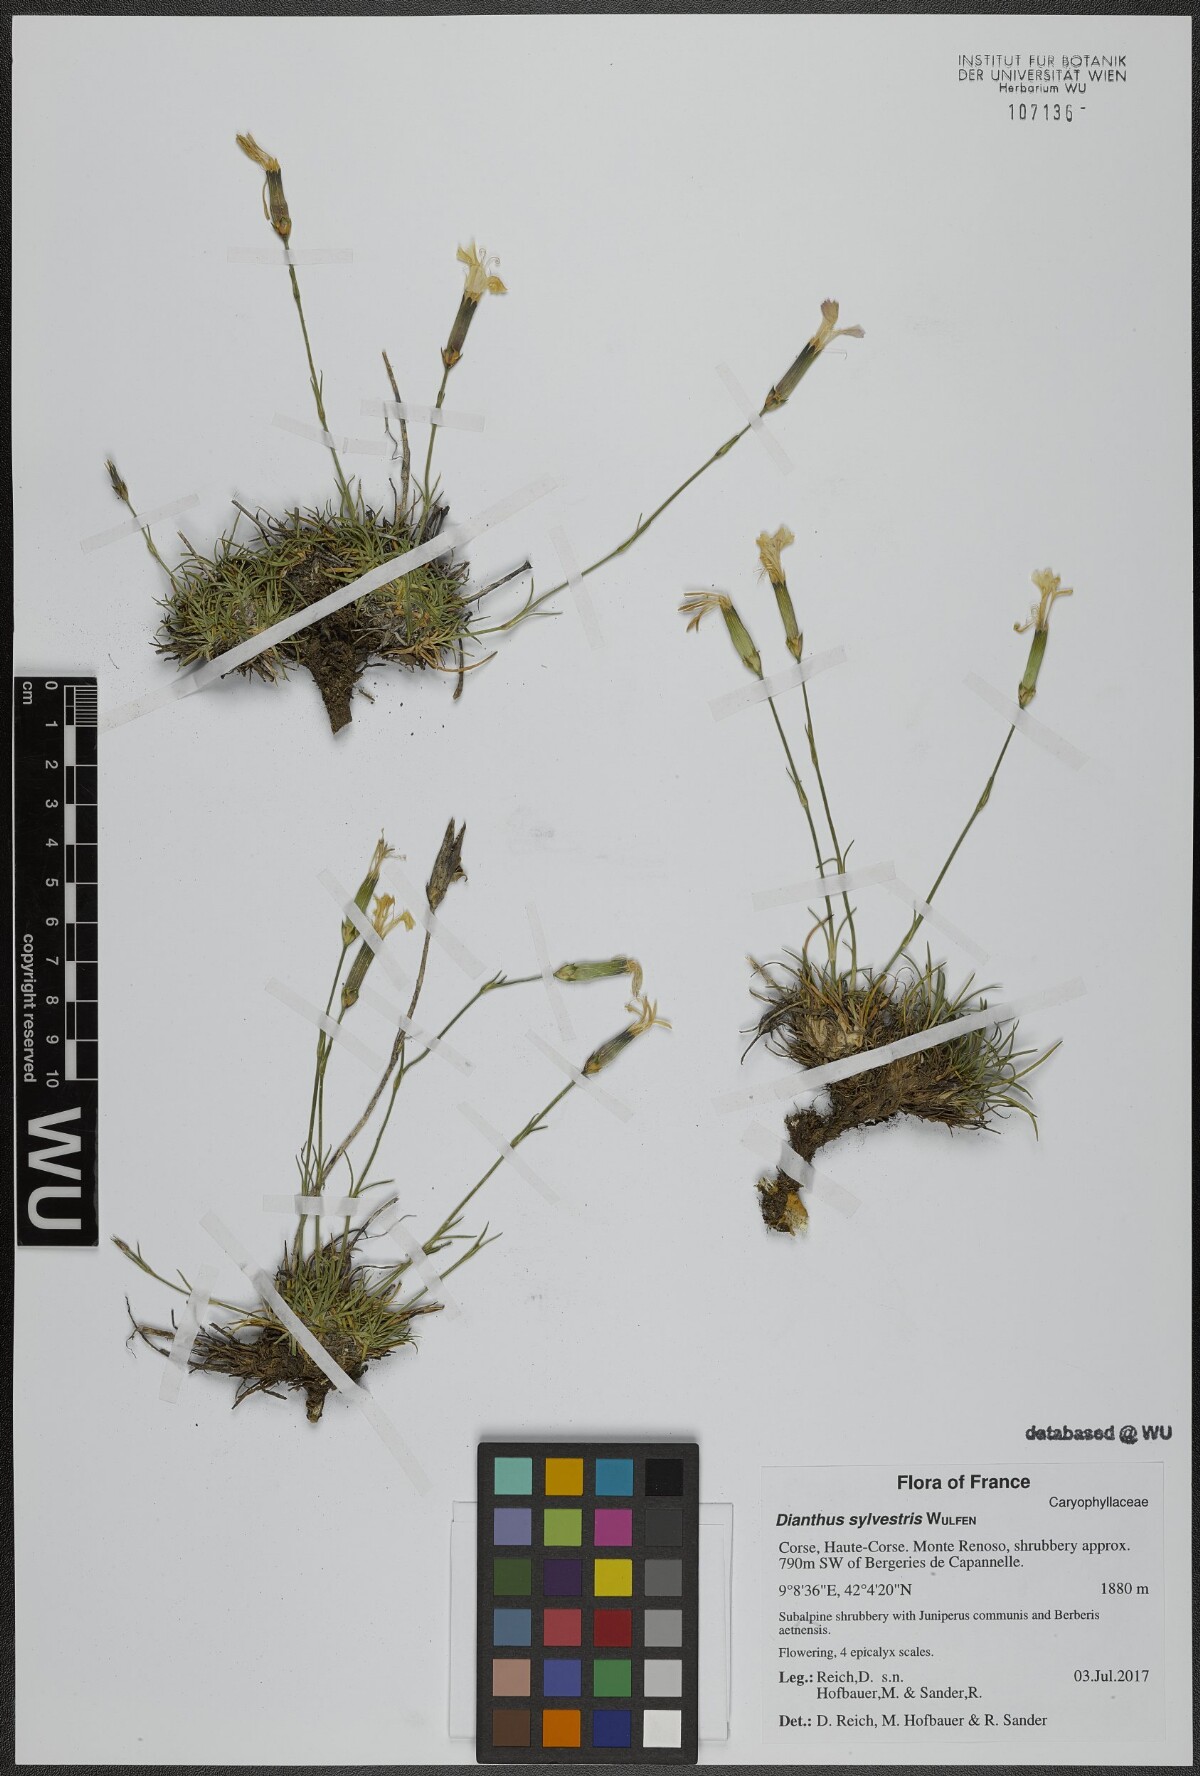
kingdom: Plantae
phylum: Tracheophyta
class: Magnoliopsida
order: Caryophyllales
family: Caryophyllaceae
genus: Dianthus
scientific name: Dianthus sylvestris
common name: Wood pink
